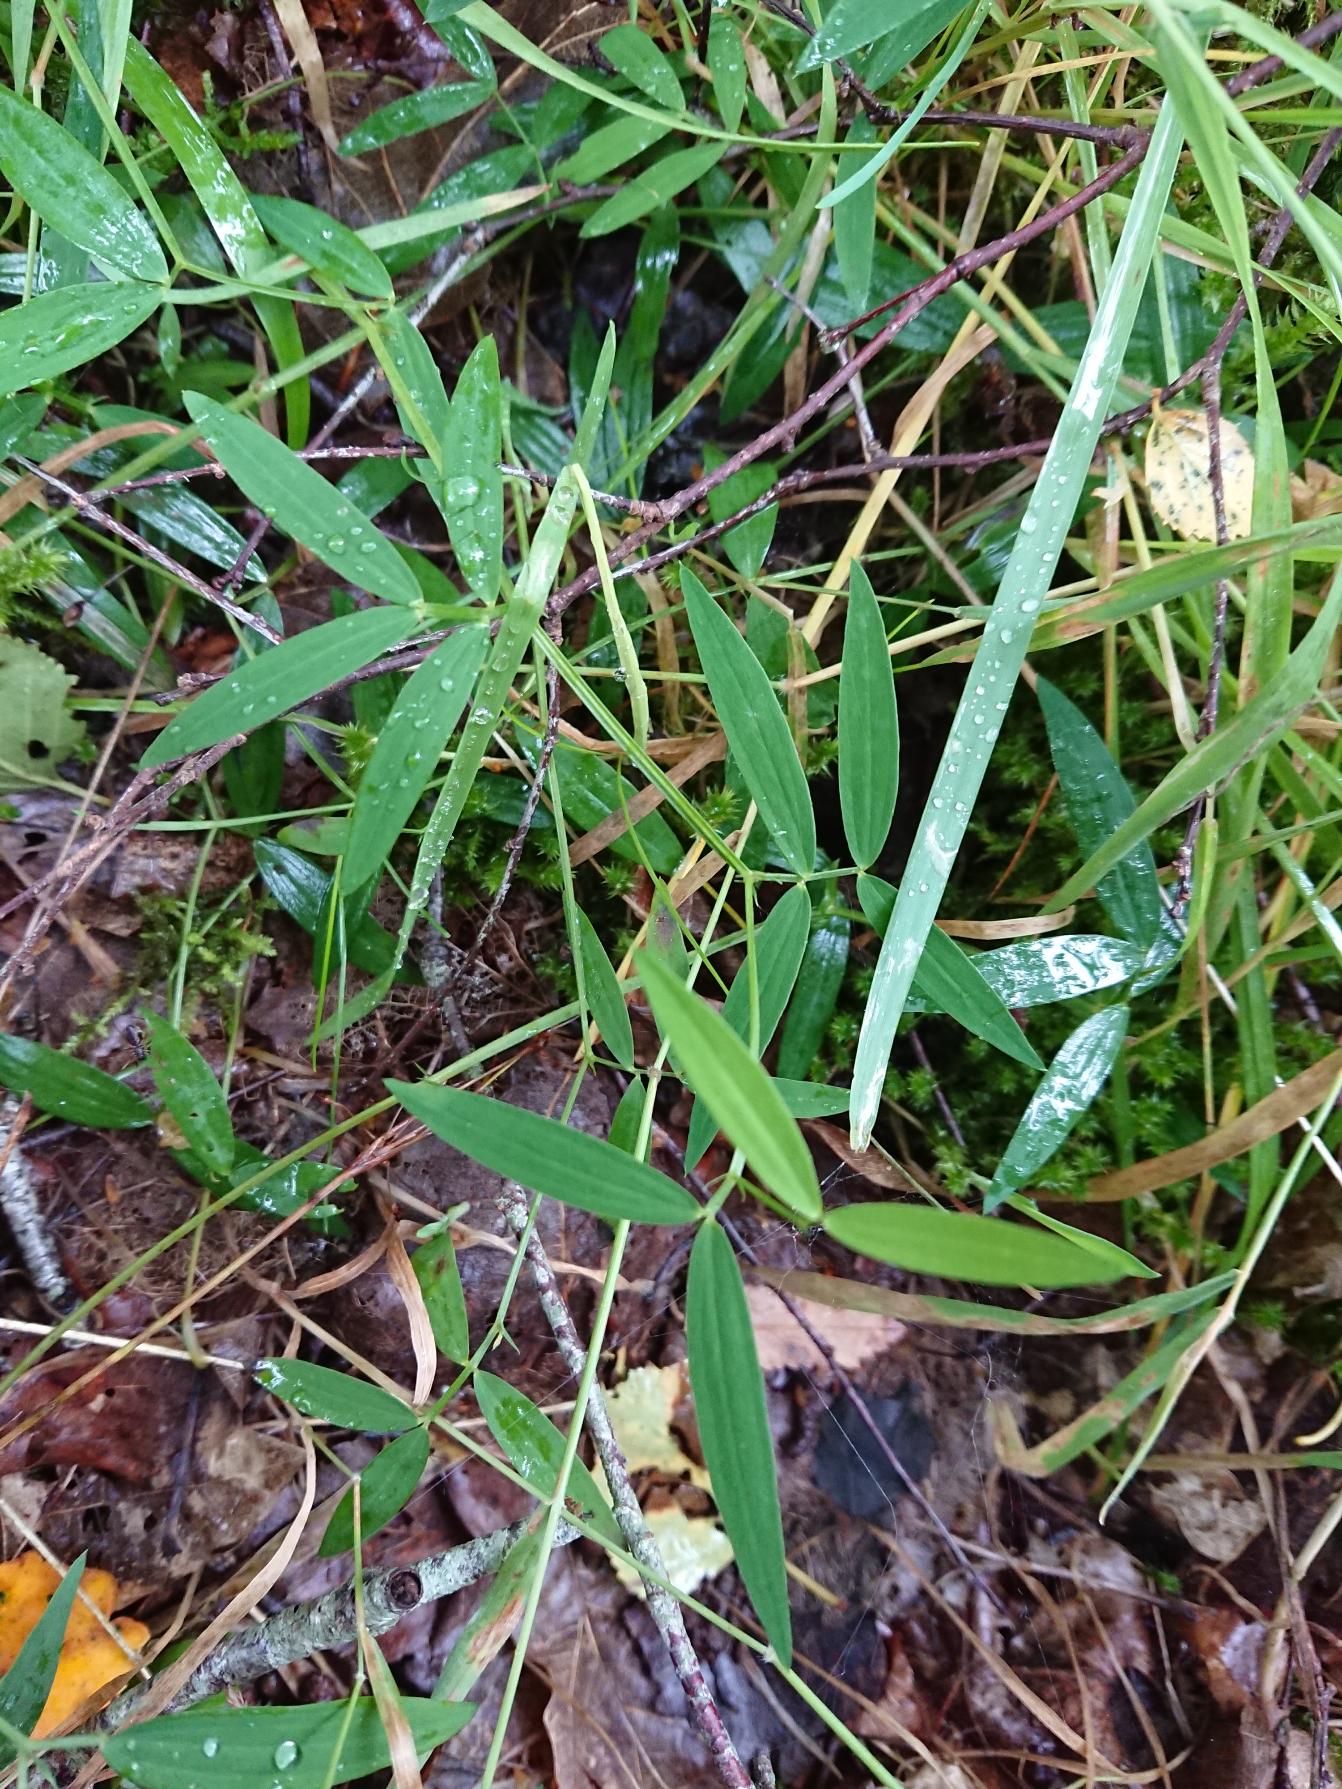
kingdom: Plantae
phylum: Tracheophyta
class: Magnoliopsida
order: Fabales
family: Fabaceae
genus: Lathyrus
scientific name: Lathyrus linifolius
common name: Krat-fladbælg
